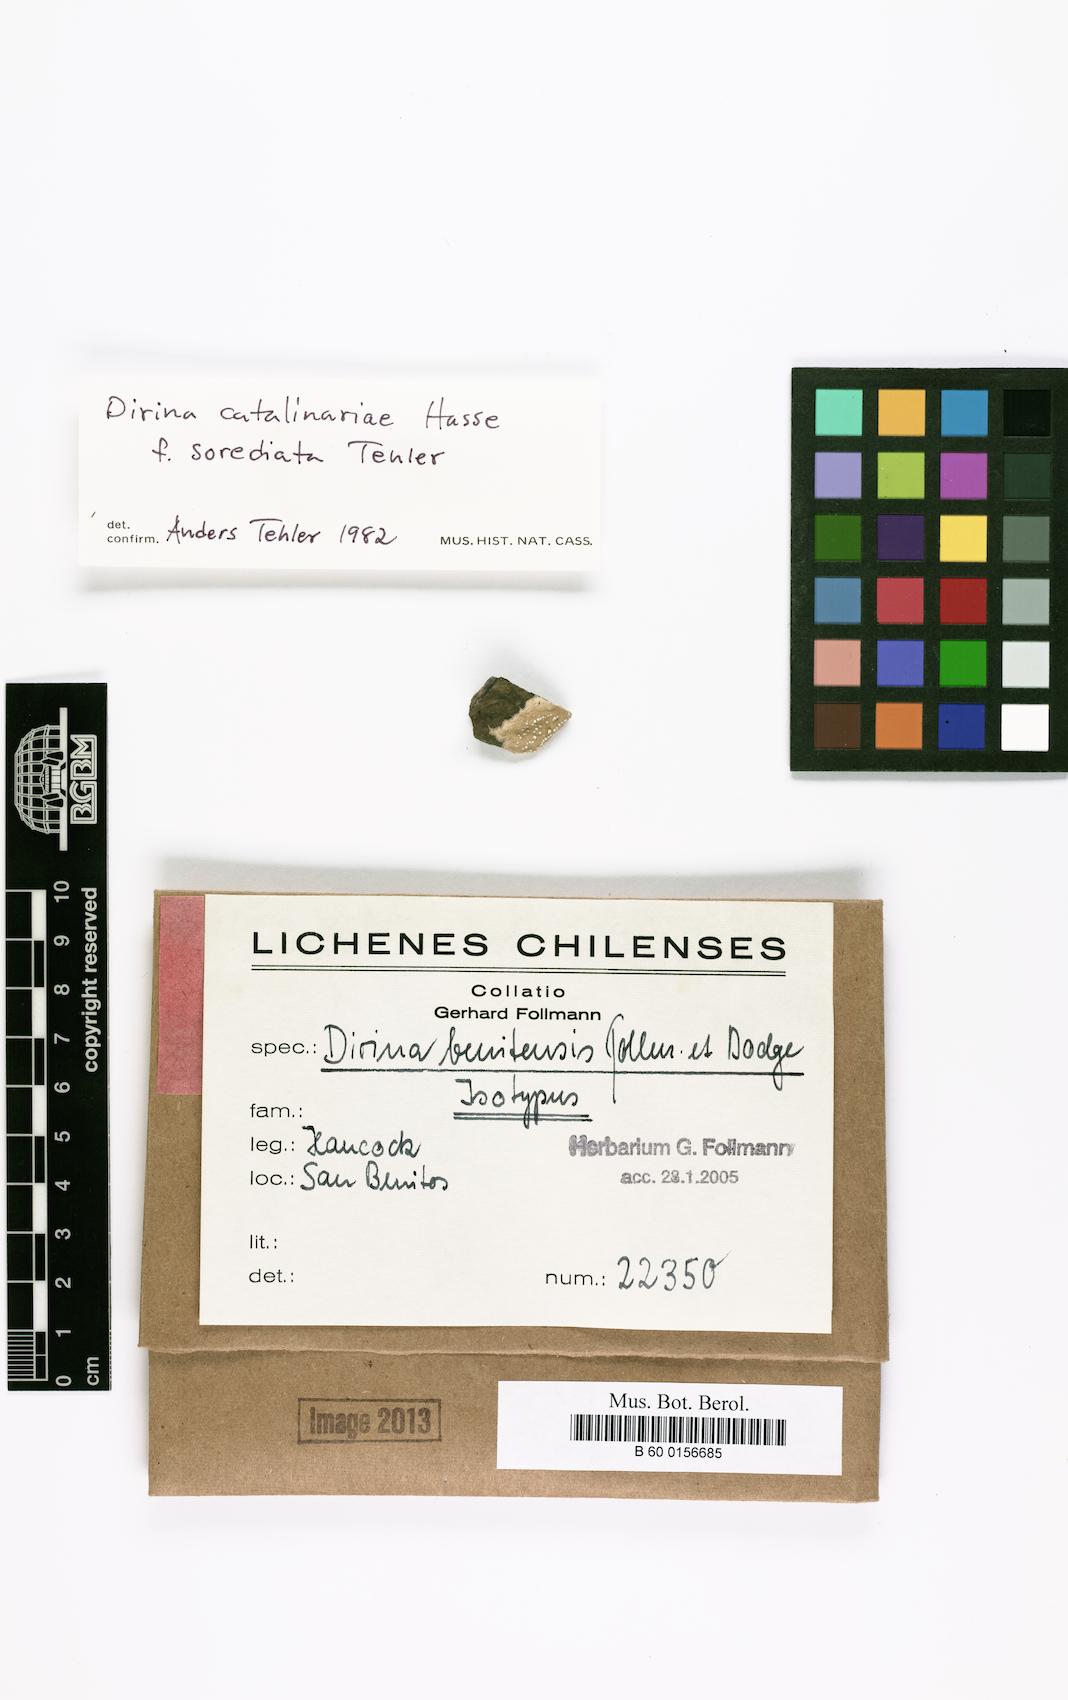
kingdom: Fungi
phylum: Ascomycota
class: Arthoniomycetes
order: Arthoniales
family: Roccellaceae
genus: Dirina
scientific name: Dirina
